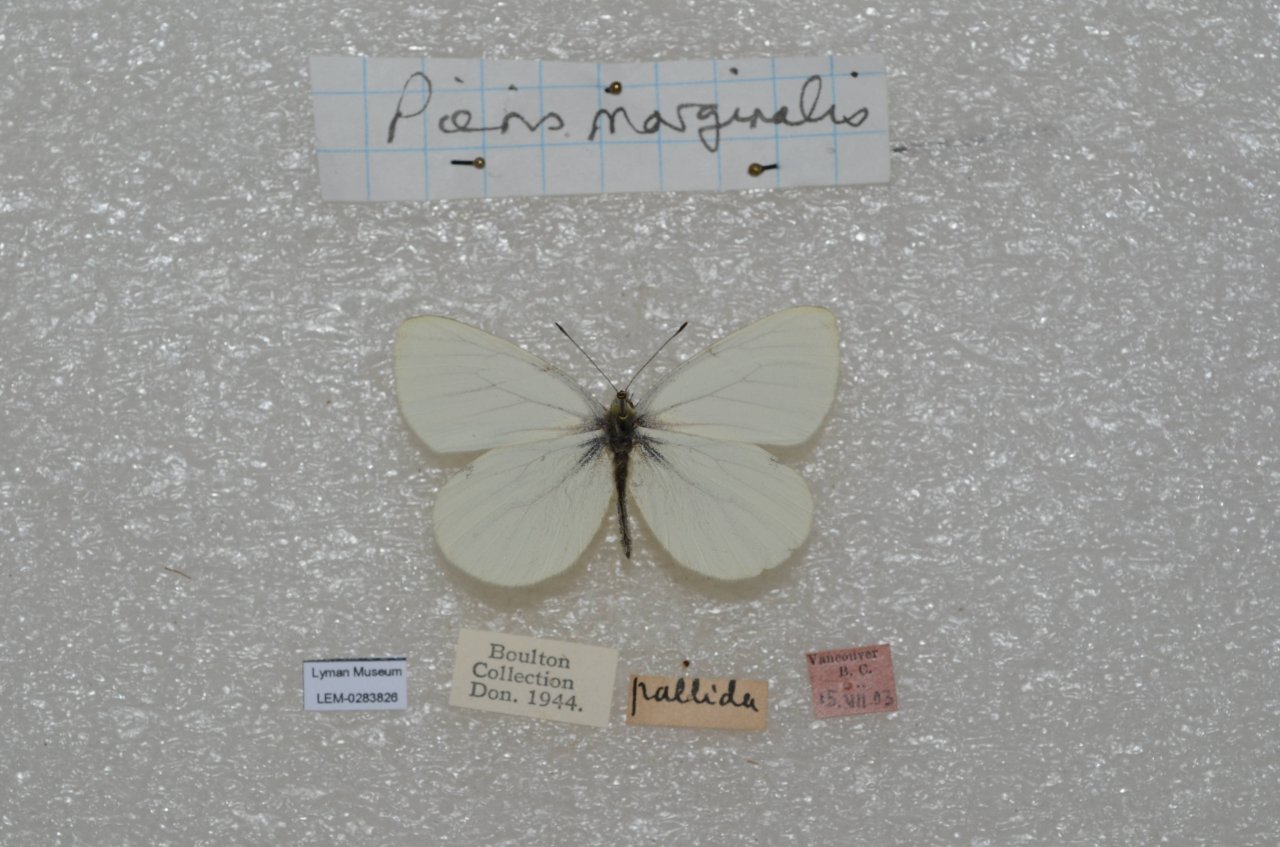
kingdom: Animalia
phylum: Arthropoda
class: Insecta
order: Lepidoptera
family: Pieridae
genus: Pieris
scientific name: Pieris marginalis
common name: Margined White
